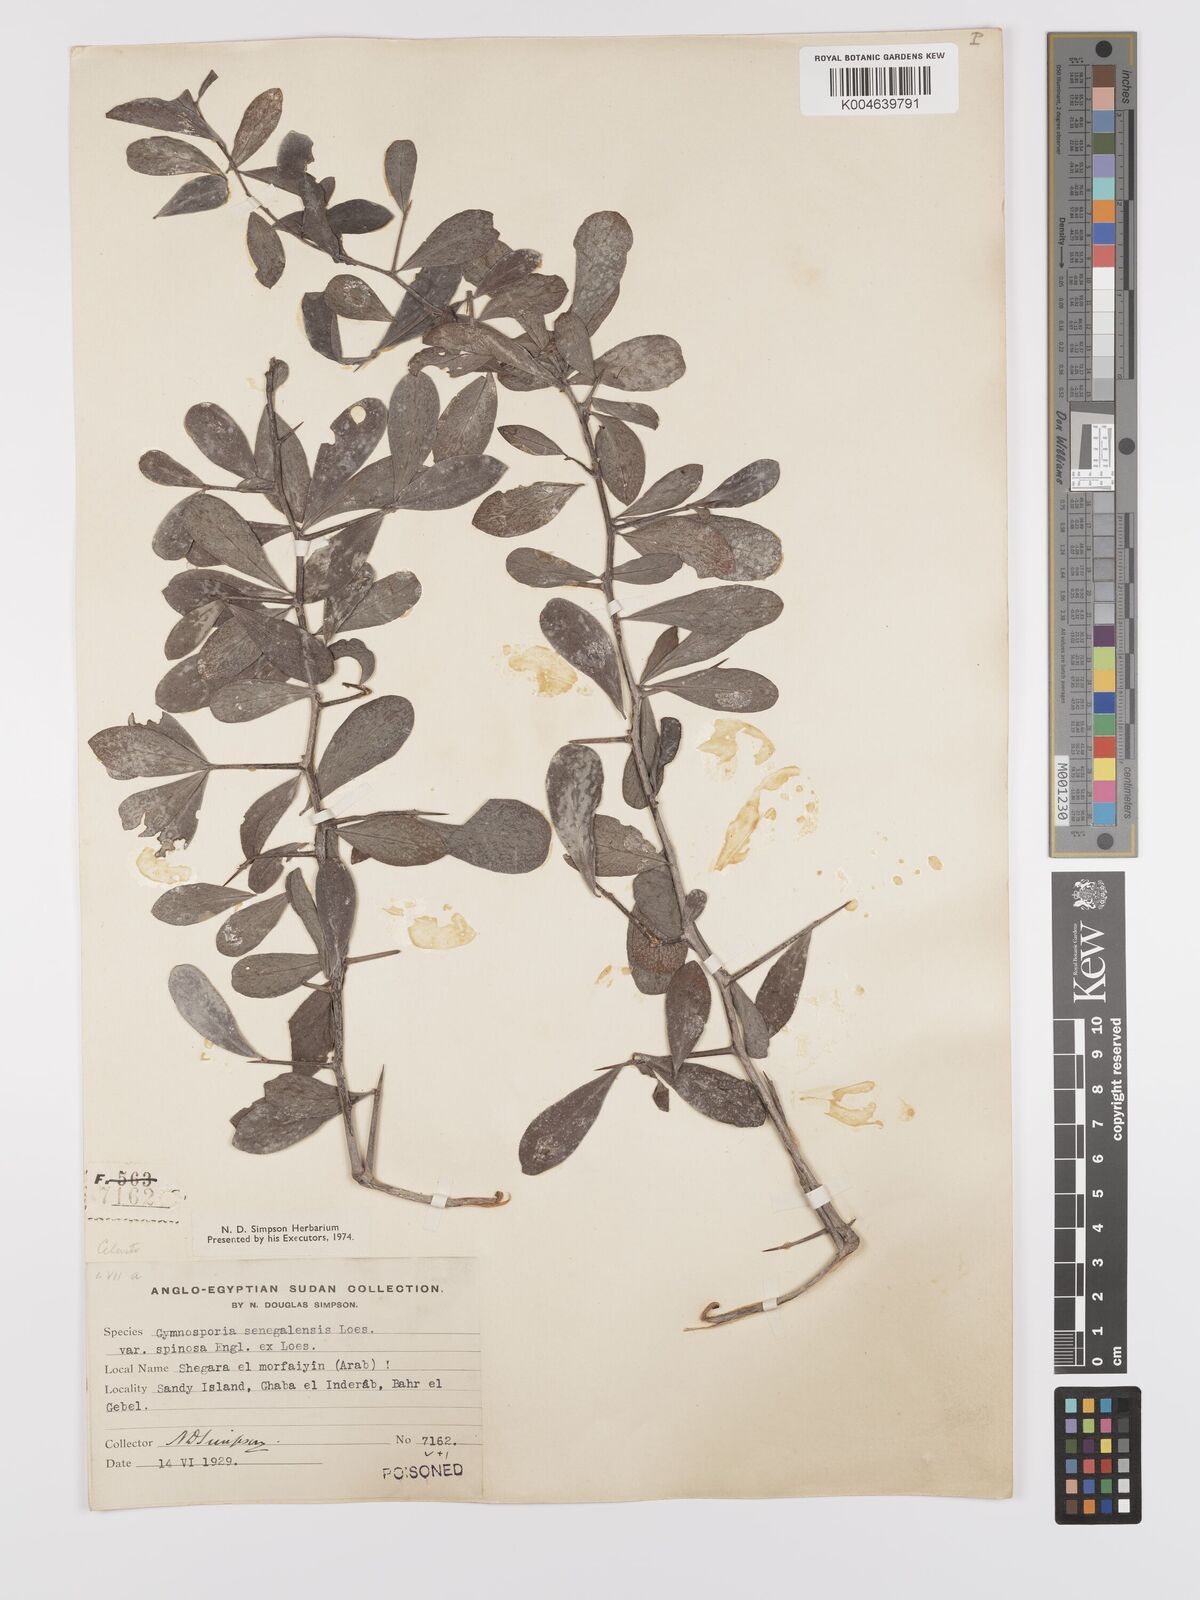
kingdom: Plantae
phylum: Tracheophyta
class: Magnoliopsida
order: Celastrales
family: Celastraceae
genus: Gymnosporia
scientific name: Gymnosporia senegalensis
